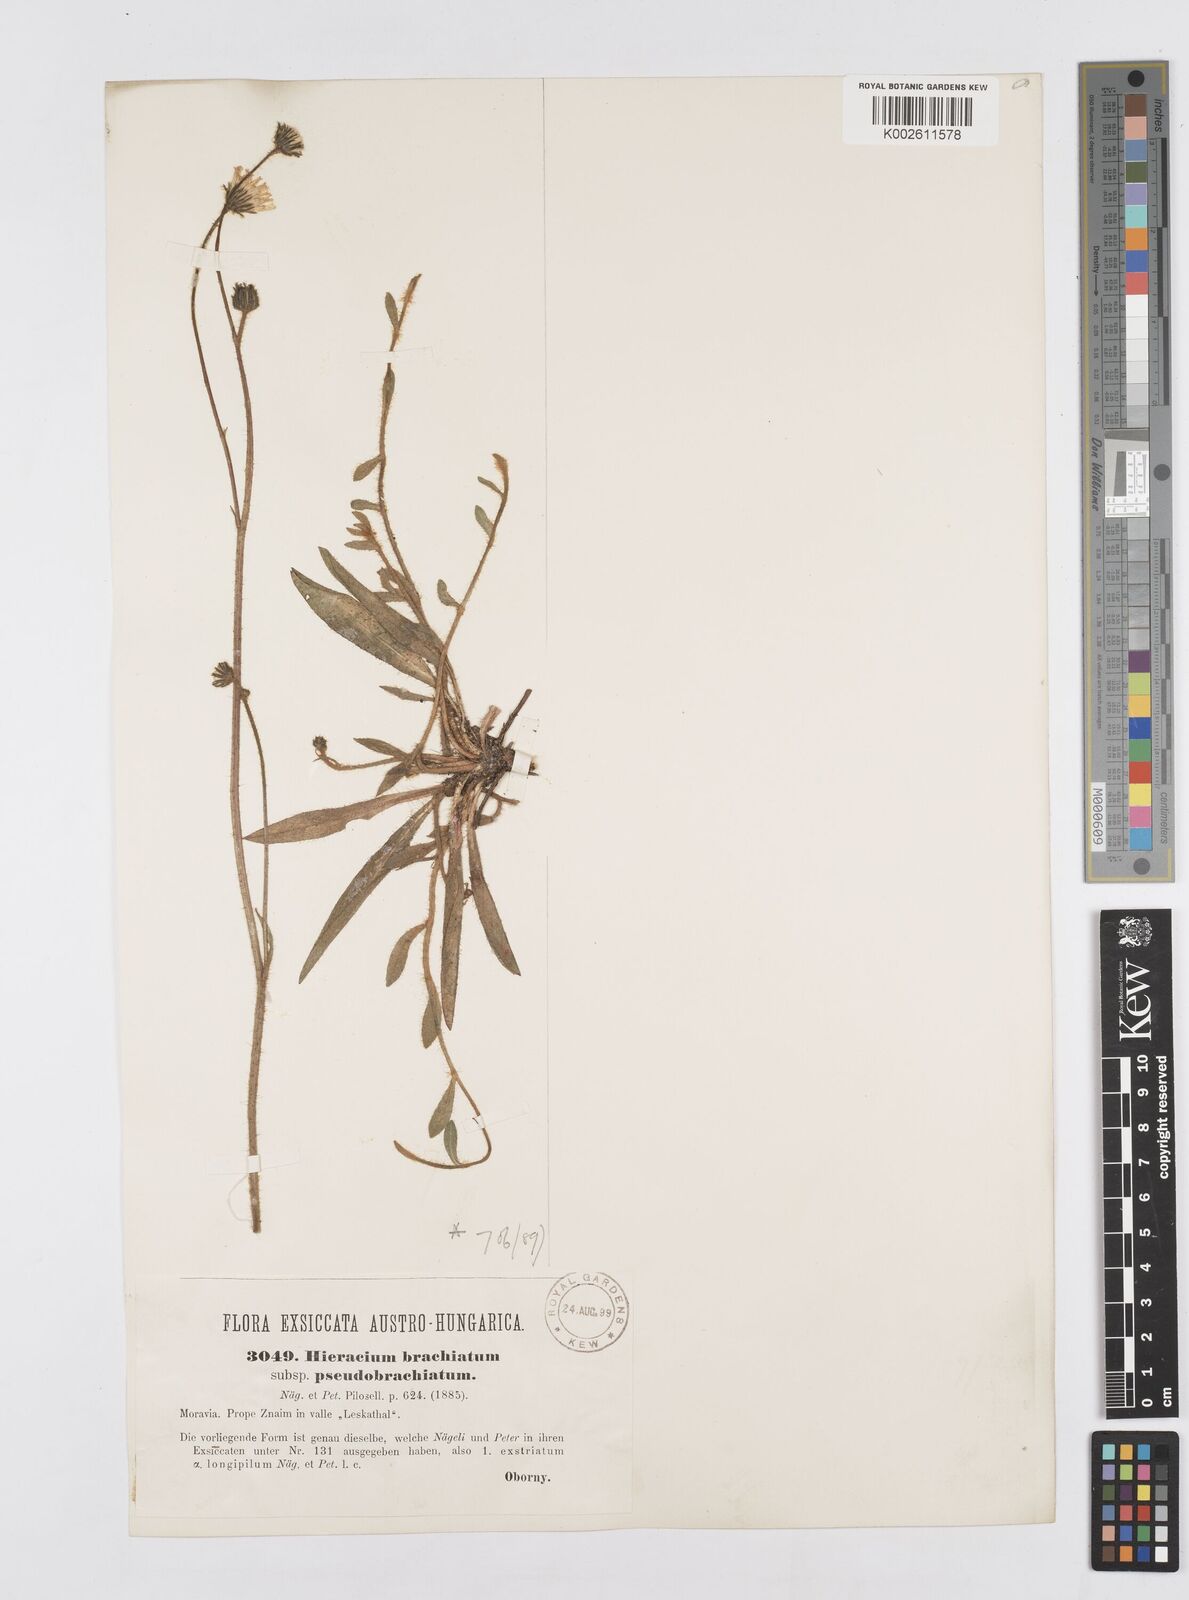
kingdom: Plantae
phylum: Tracheophyta
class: Magnoliopsida
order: Asterales
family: Asteraceae
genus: Pilosella
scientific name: Pilosella acutifolia
